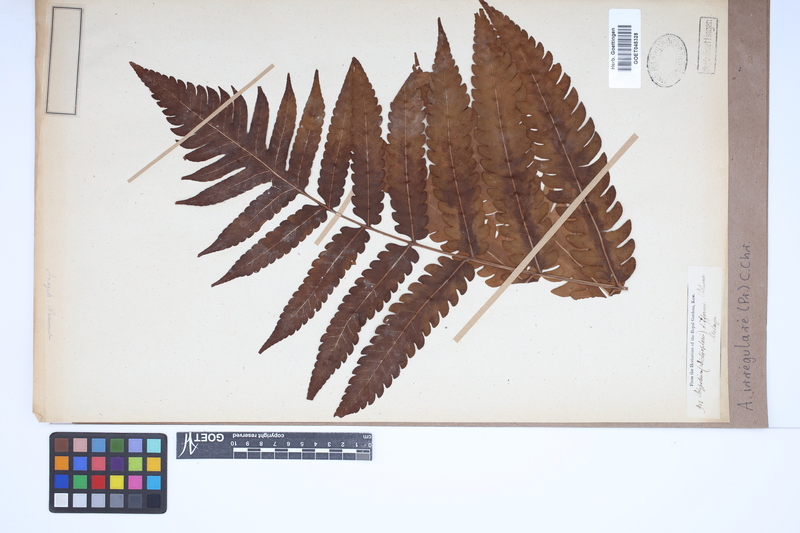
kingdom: Plantae
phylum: Tracheophyta
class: Polypodiopsida
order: Polypodiales
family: Dryopteridaceae
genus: Pleocnemia
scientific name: Pleocnemia irregularis
